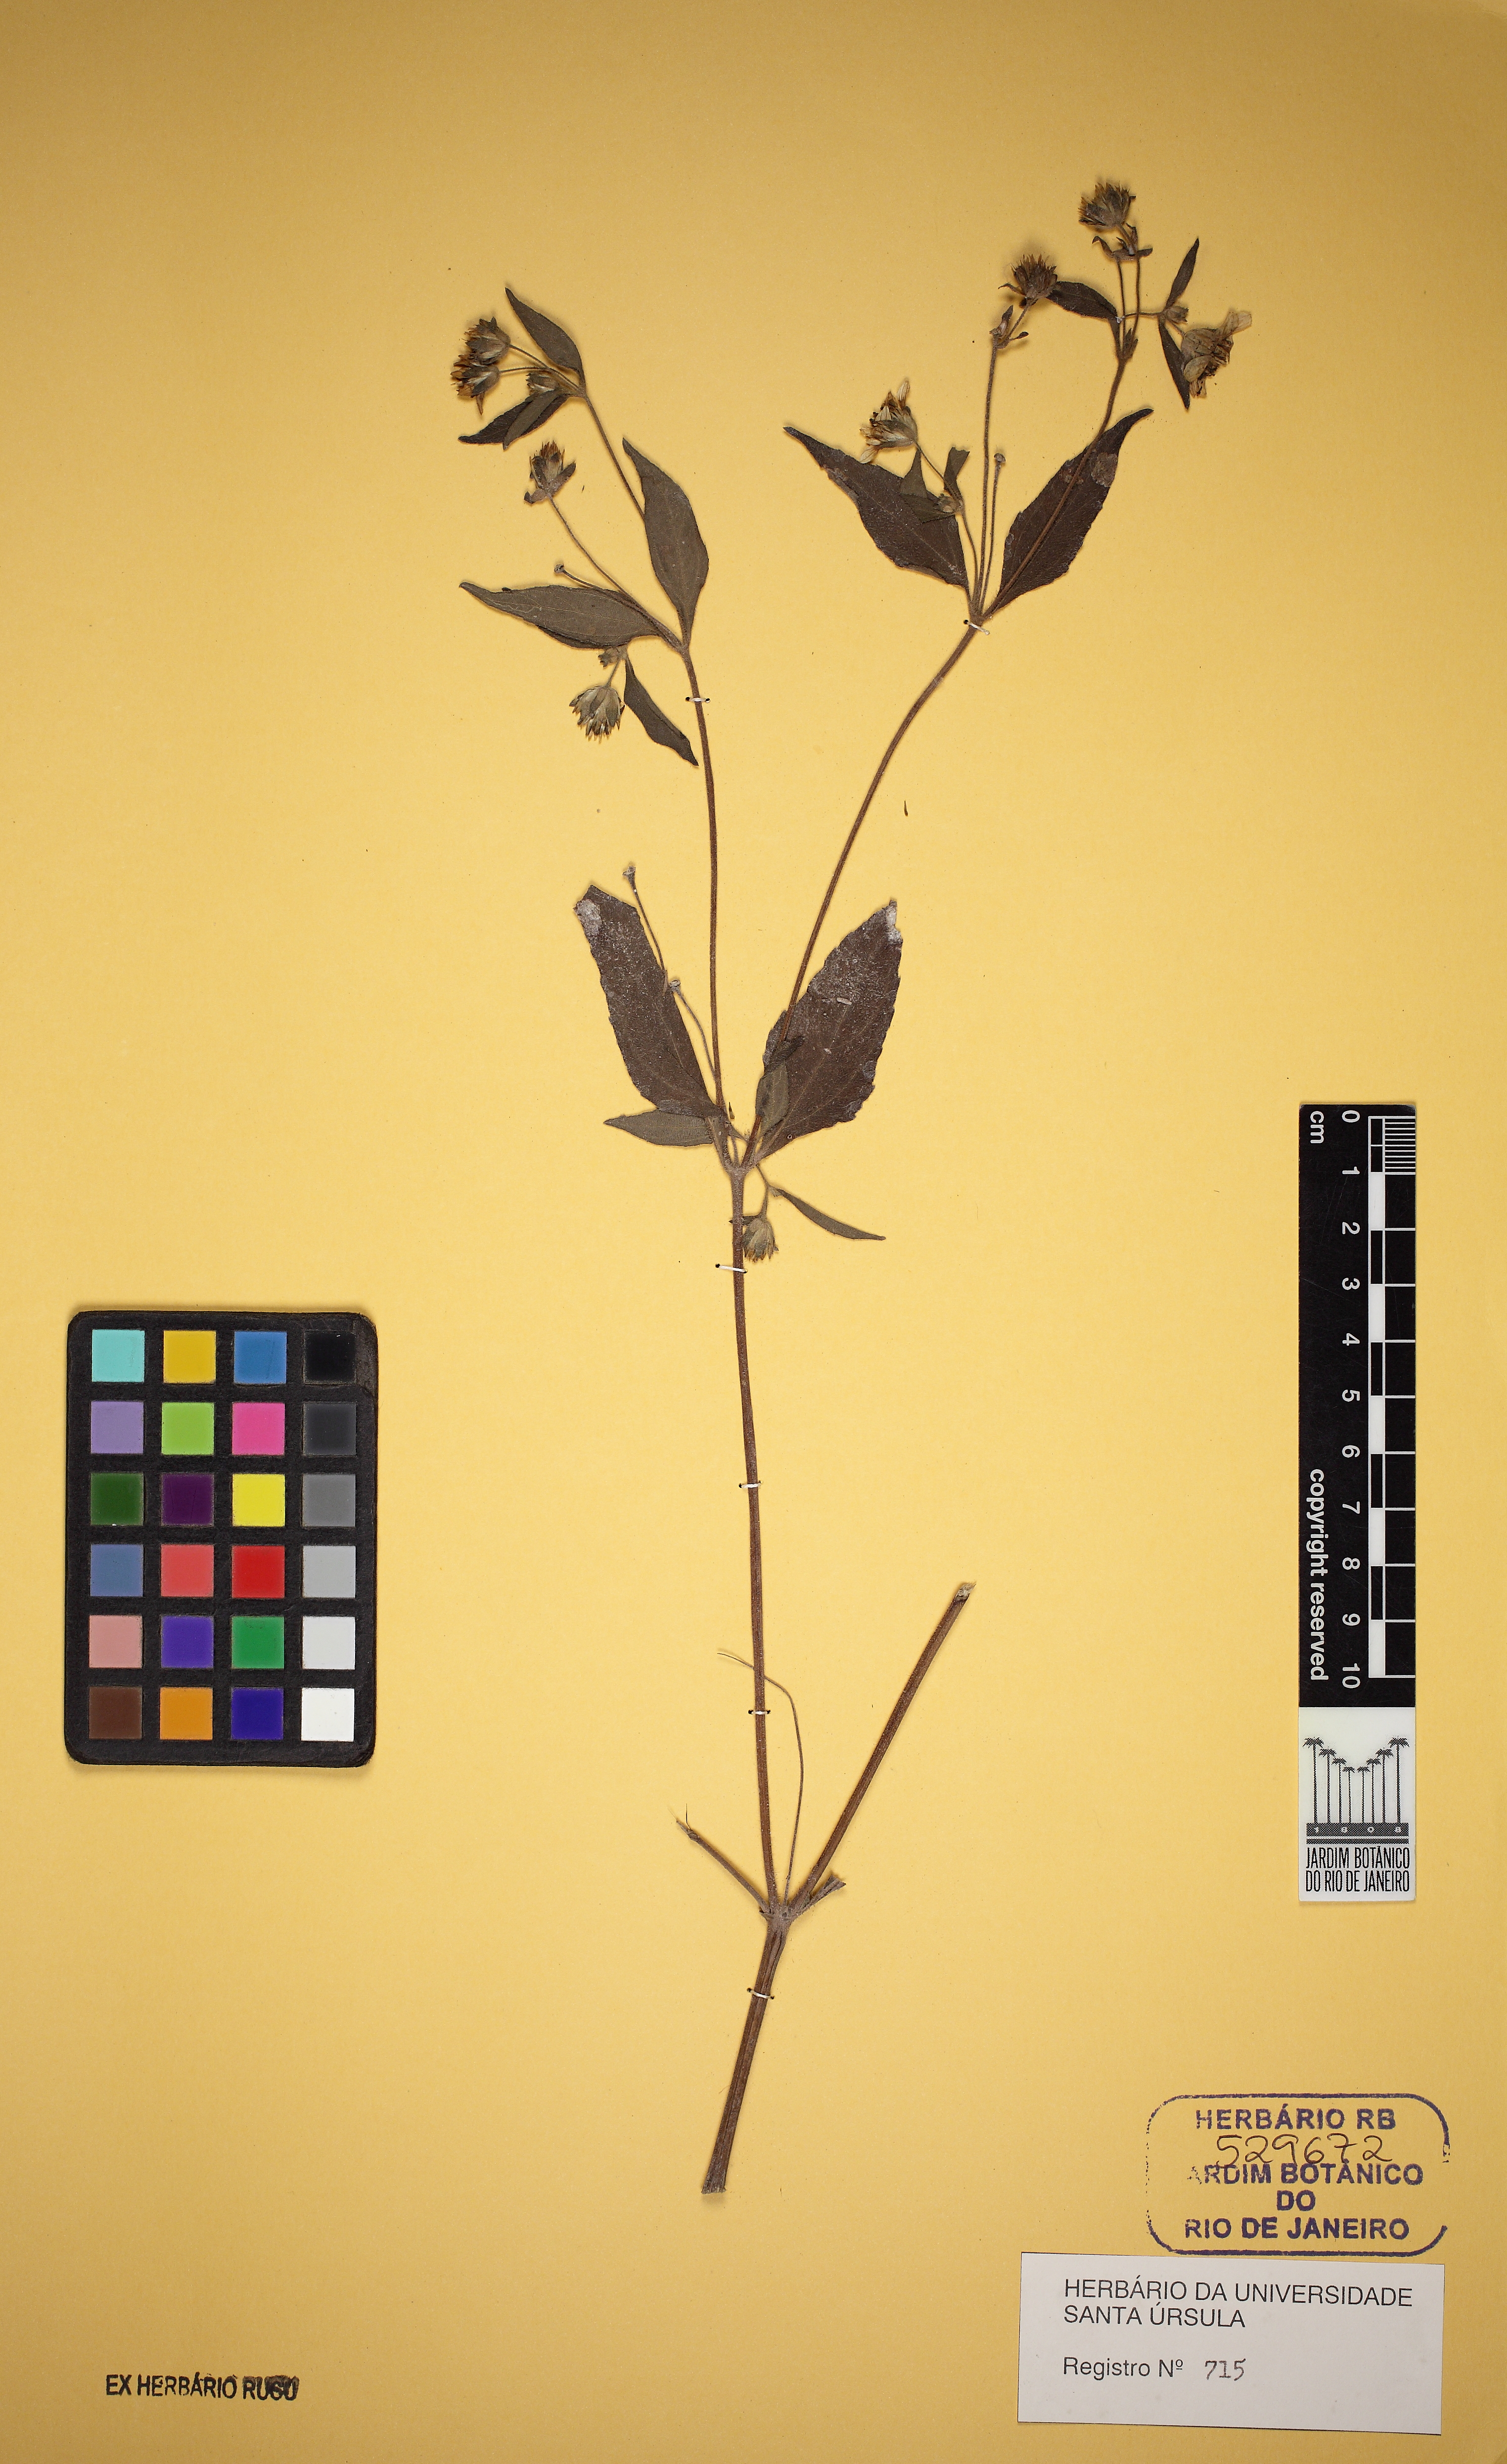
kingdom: Plantae
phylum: Tracheophyta
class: Magnoliopsida
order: Asterales
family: Asteraceae
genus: Wedelia
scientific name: Wedelia rudis
